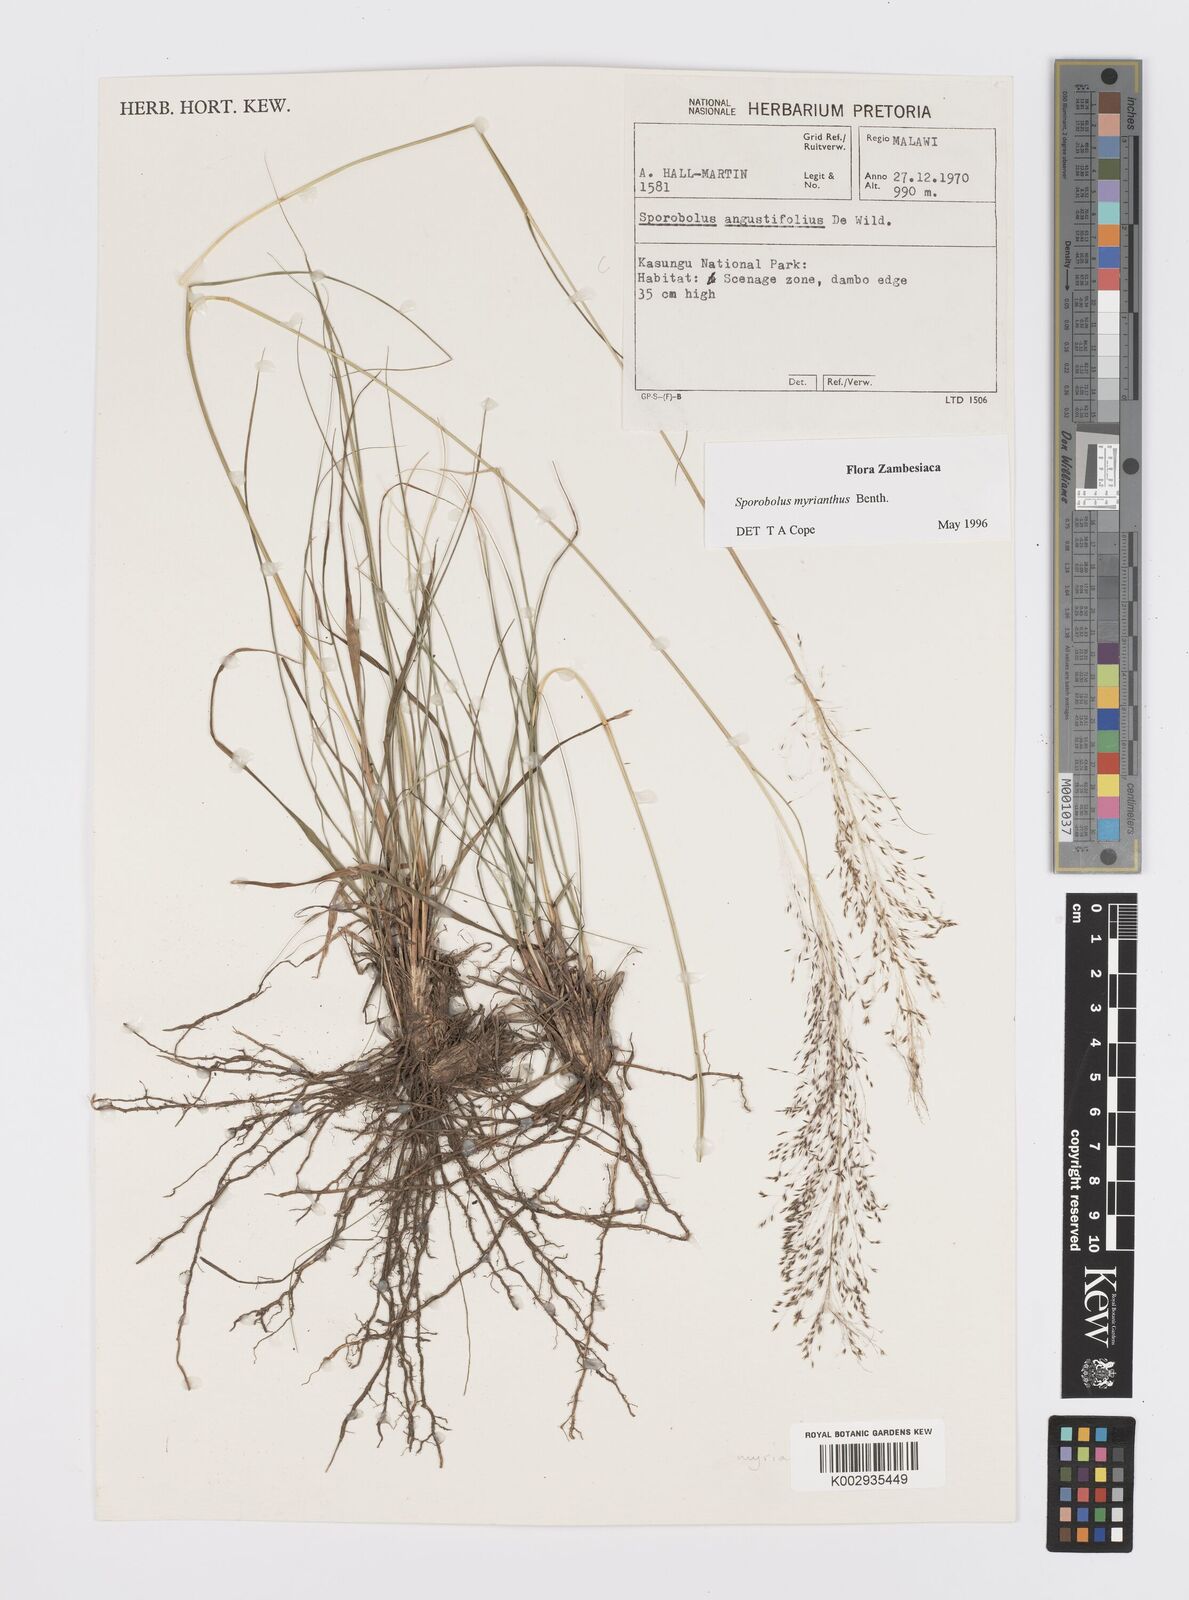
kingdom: Plantae
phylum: Tracheophyta
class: Liliopsida
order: Poales
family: Poaceae
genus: Sporobolus
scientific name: Sporobolus myrianthus
